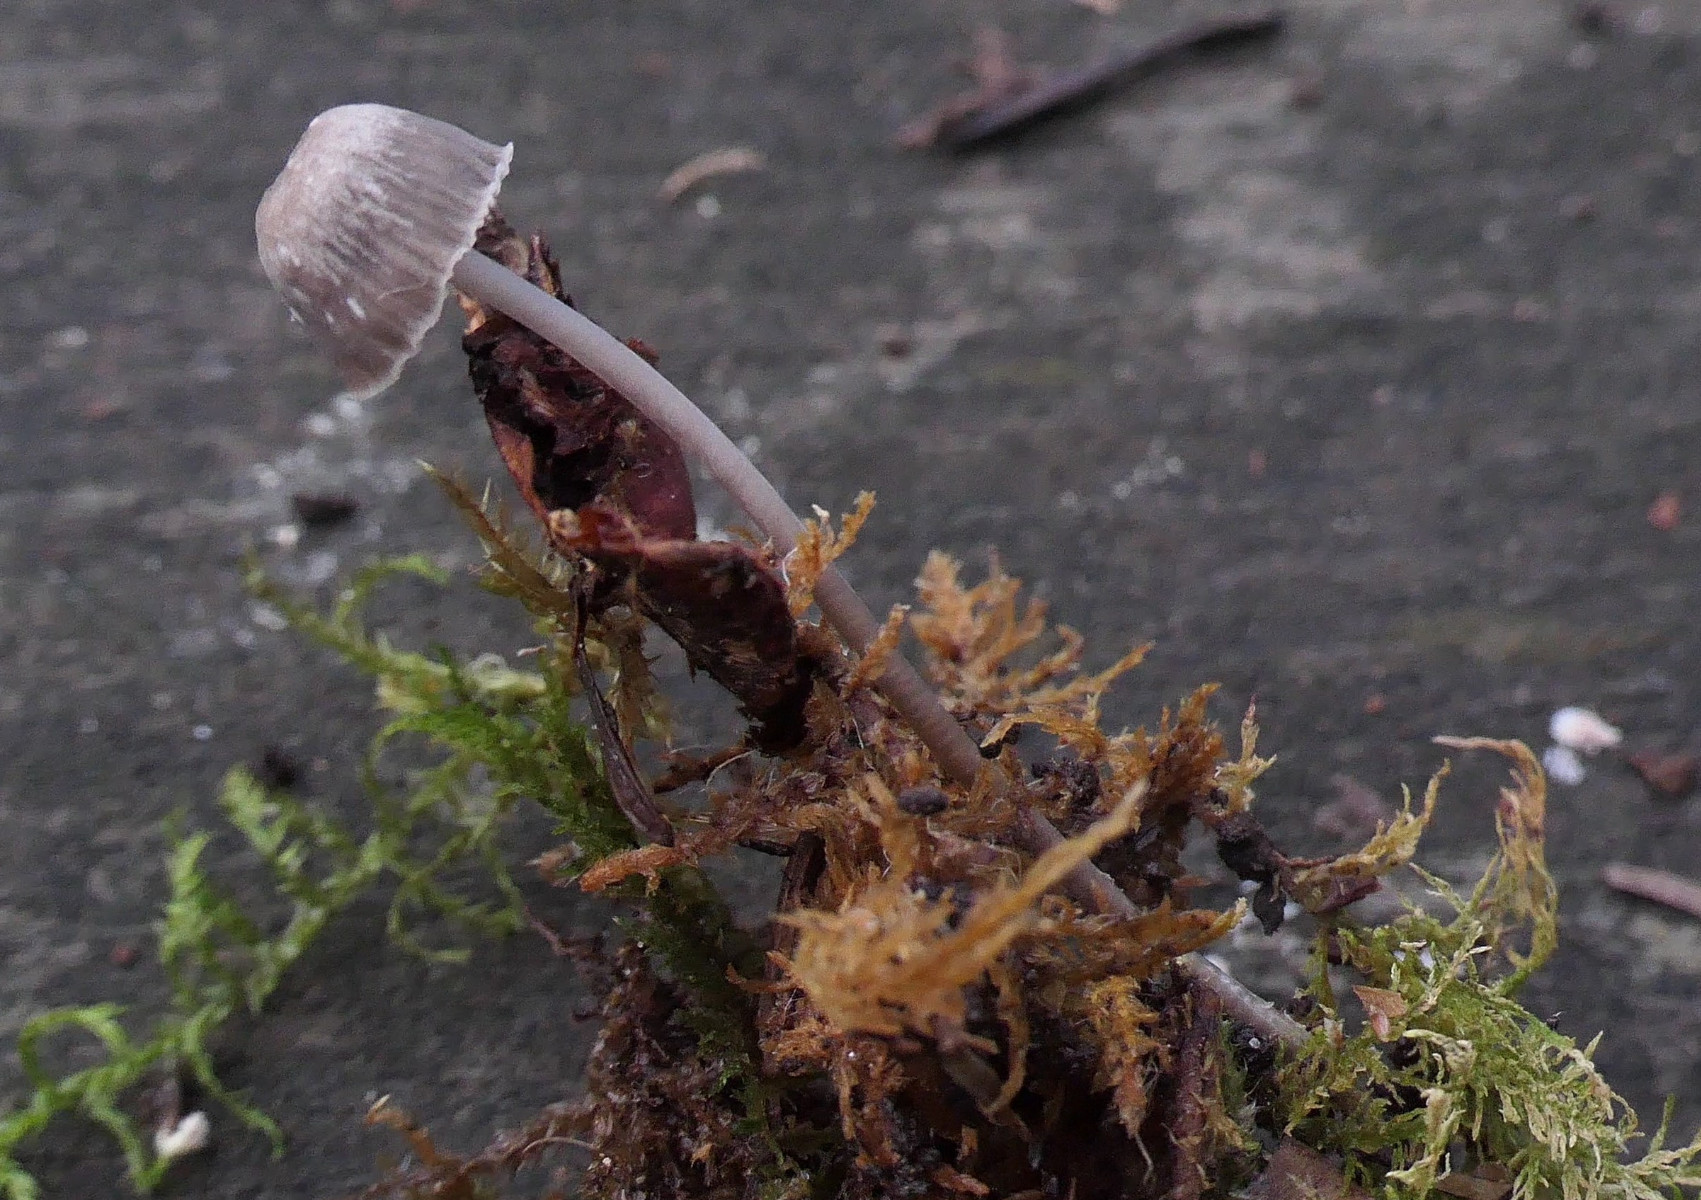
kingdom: Fungi
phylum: Basidiomycota
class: Agaricomycetes
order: Agaricales
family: Mycenaceae
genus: Mycena
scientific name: Mycena cinerella
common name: mel-huesvamp
